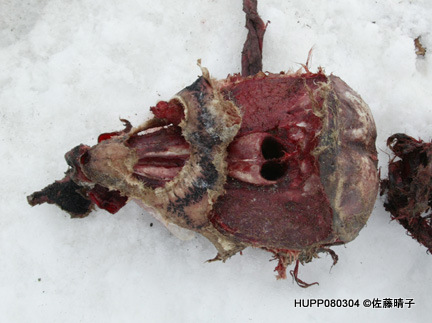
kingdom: Animalia
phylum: Chordata
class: Mammalia
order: Cetacea
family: Phocoenidae
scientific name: Phocoenidae
